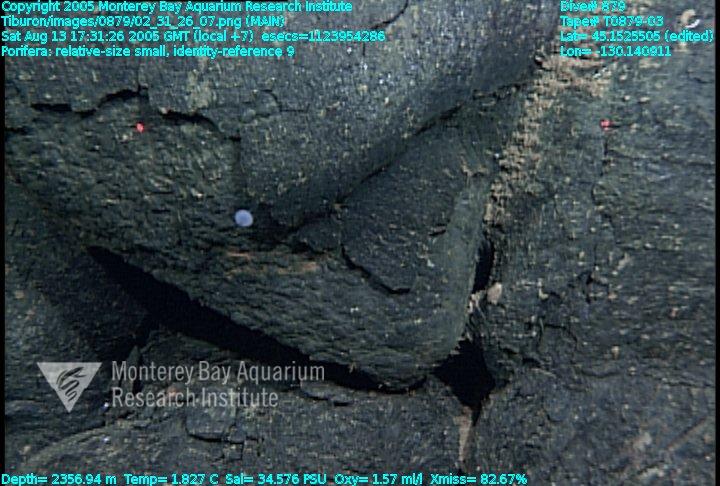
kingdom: Animalia
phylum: Porifera
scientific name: Porifera
